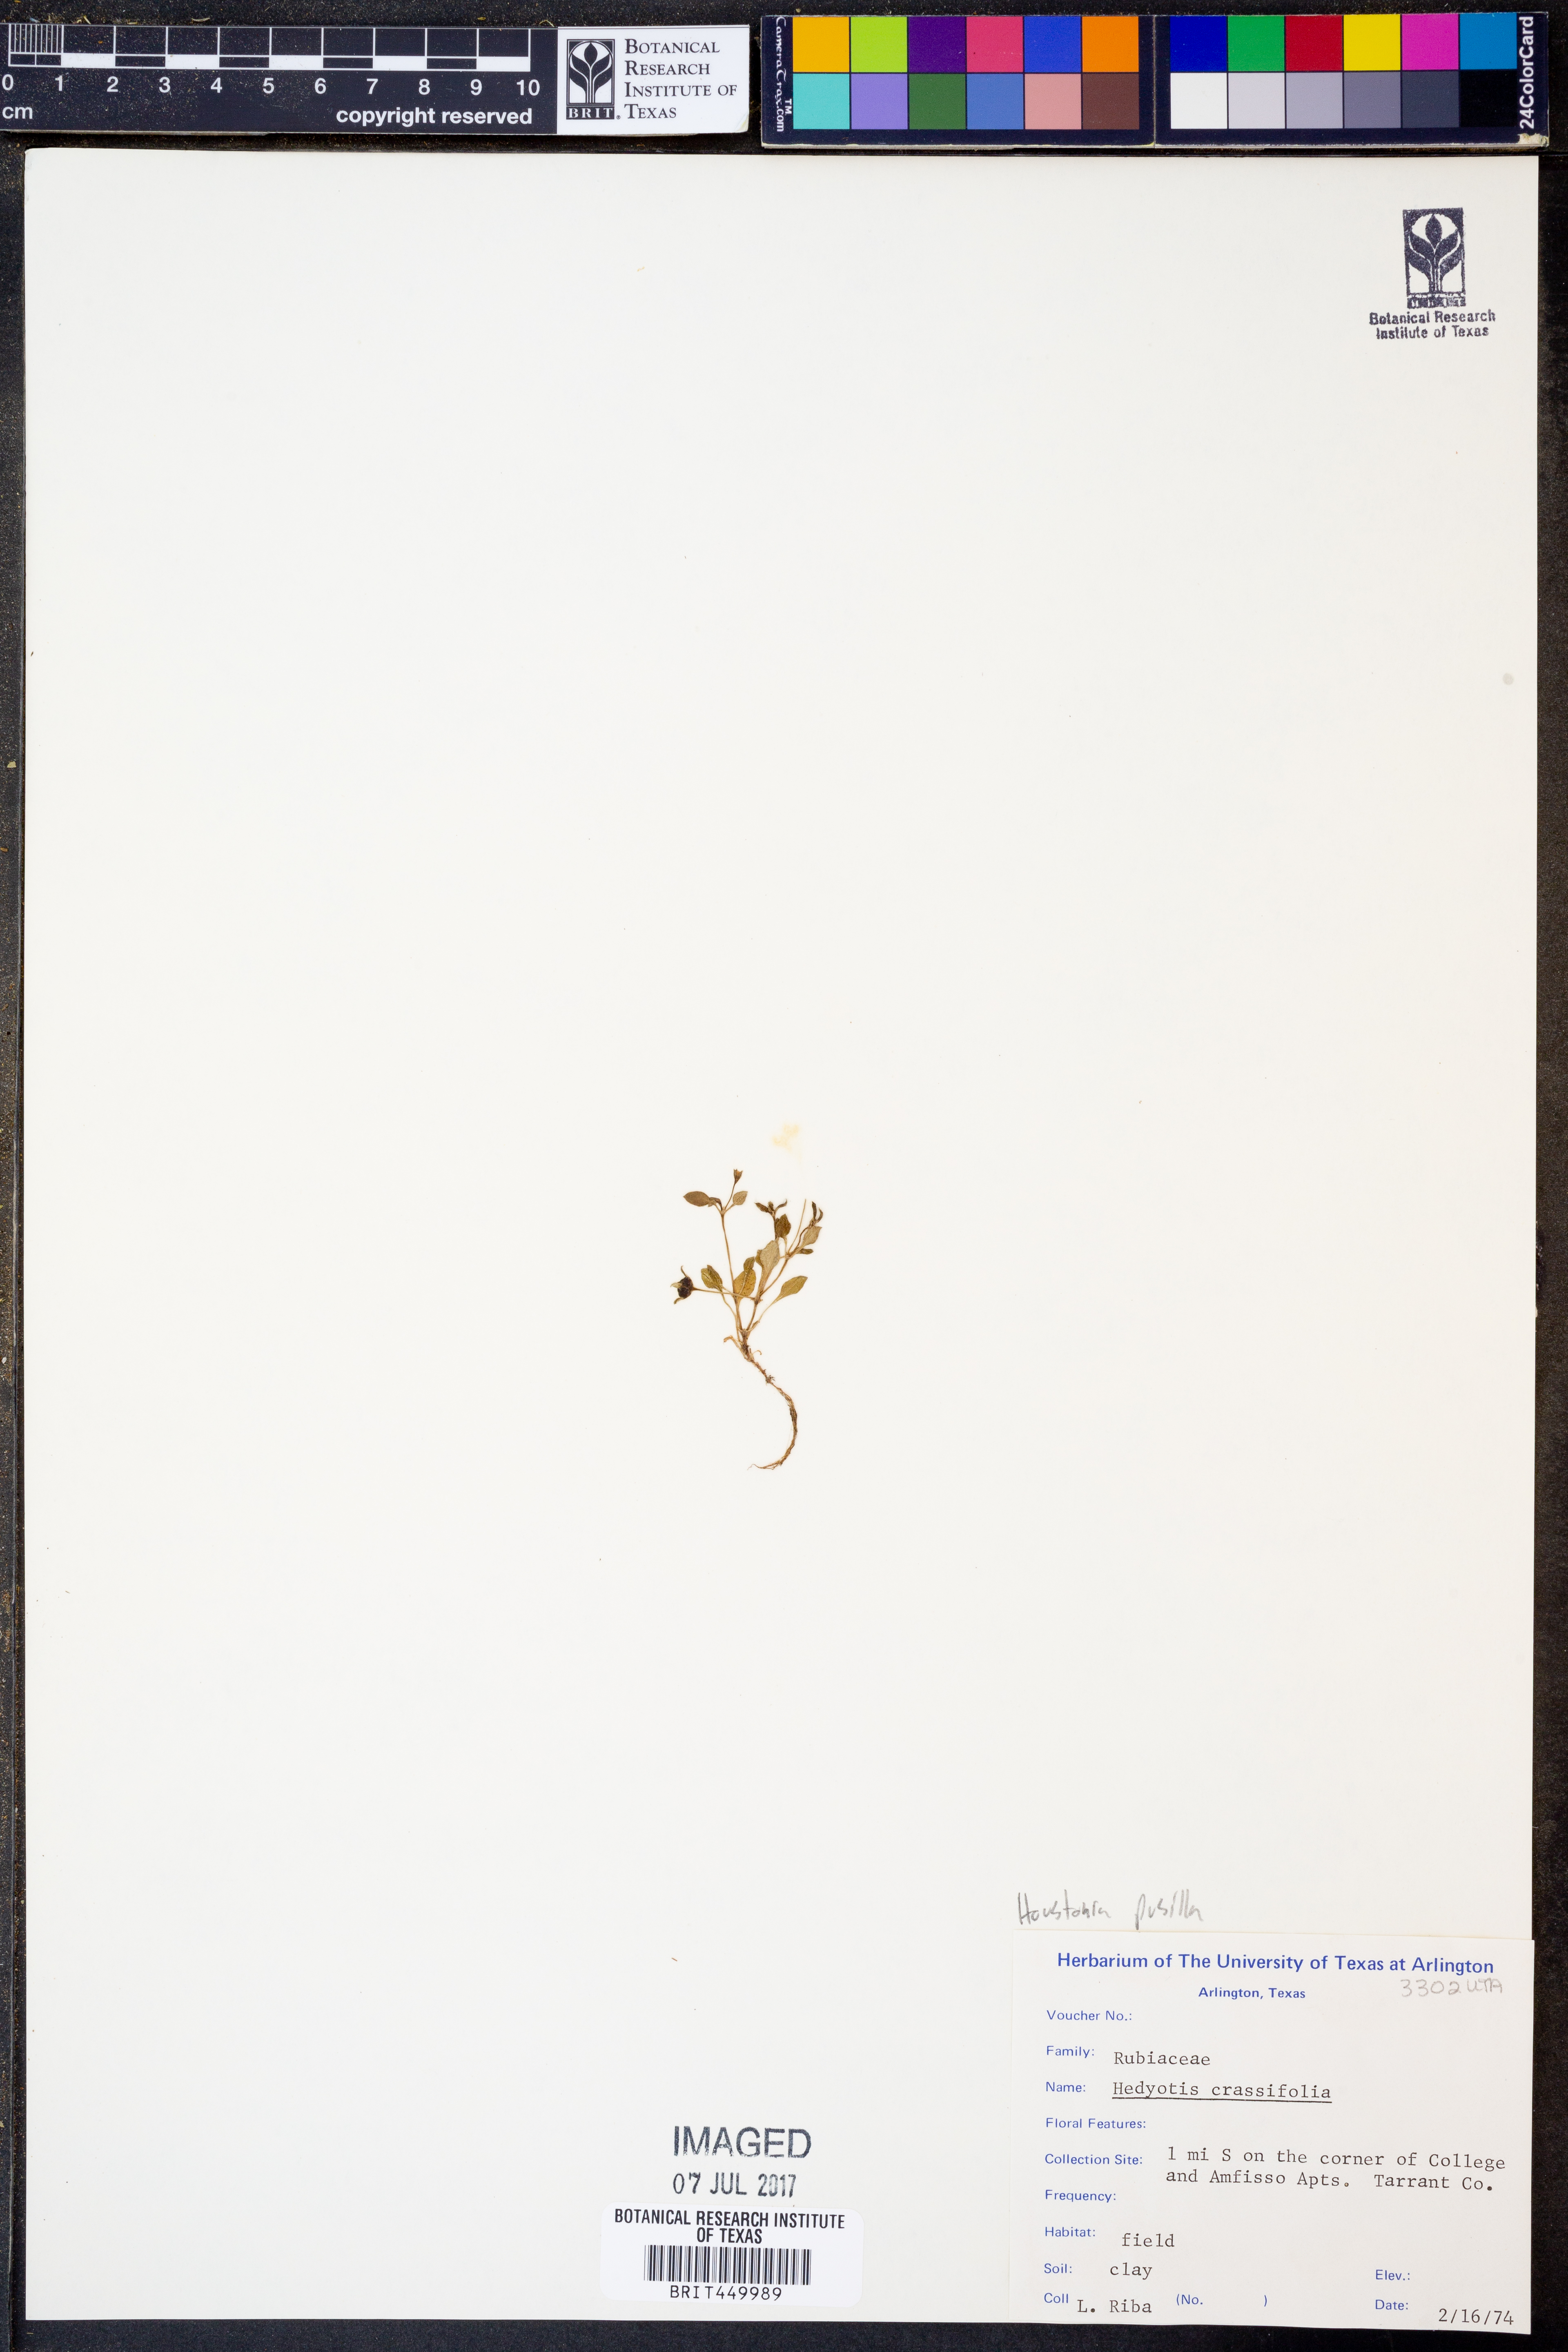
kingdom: Plantae
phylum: Tracheophyta
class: Magnoliopsida
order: Gentianales
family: Rubiaceae
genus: Houstonia
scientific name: Houstonia pusilla
